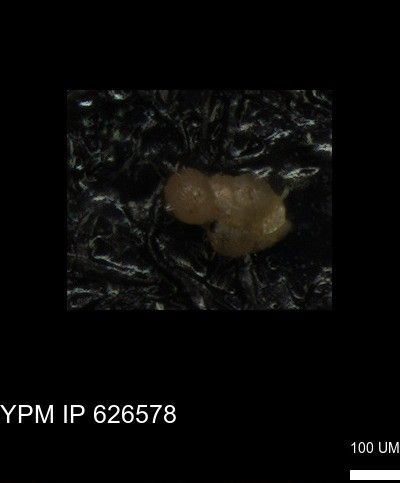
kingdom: Chromista
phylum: Foraminifera
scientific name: Foraminifera
